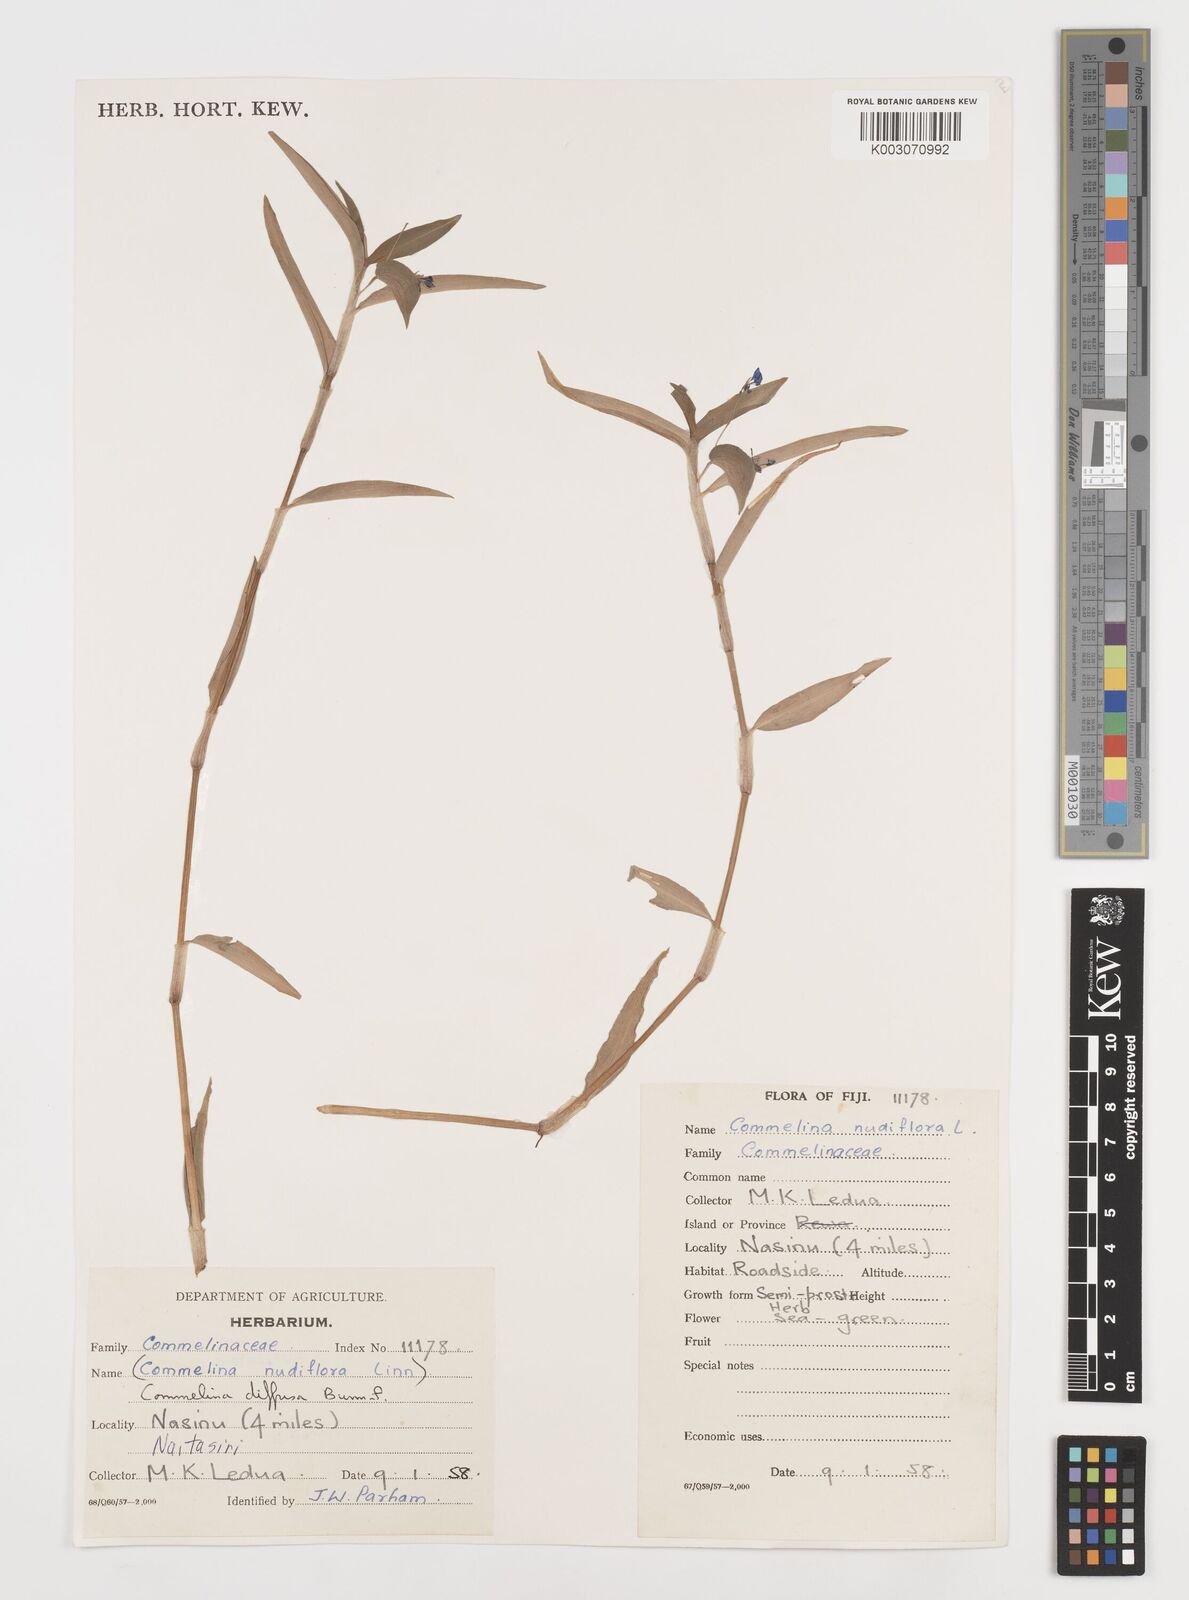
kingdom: Plantae
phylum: Tracheophyta
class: Liliopsida
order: Commelinales
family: Commelinaceae
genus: Commelina
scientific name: Commelina diffusa
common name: Climbing dayflower
